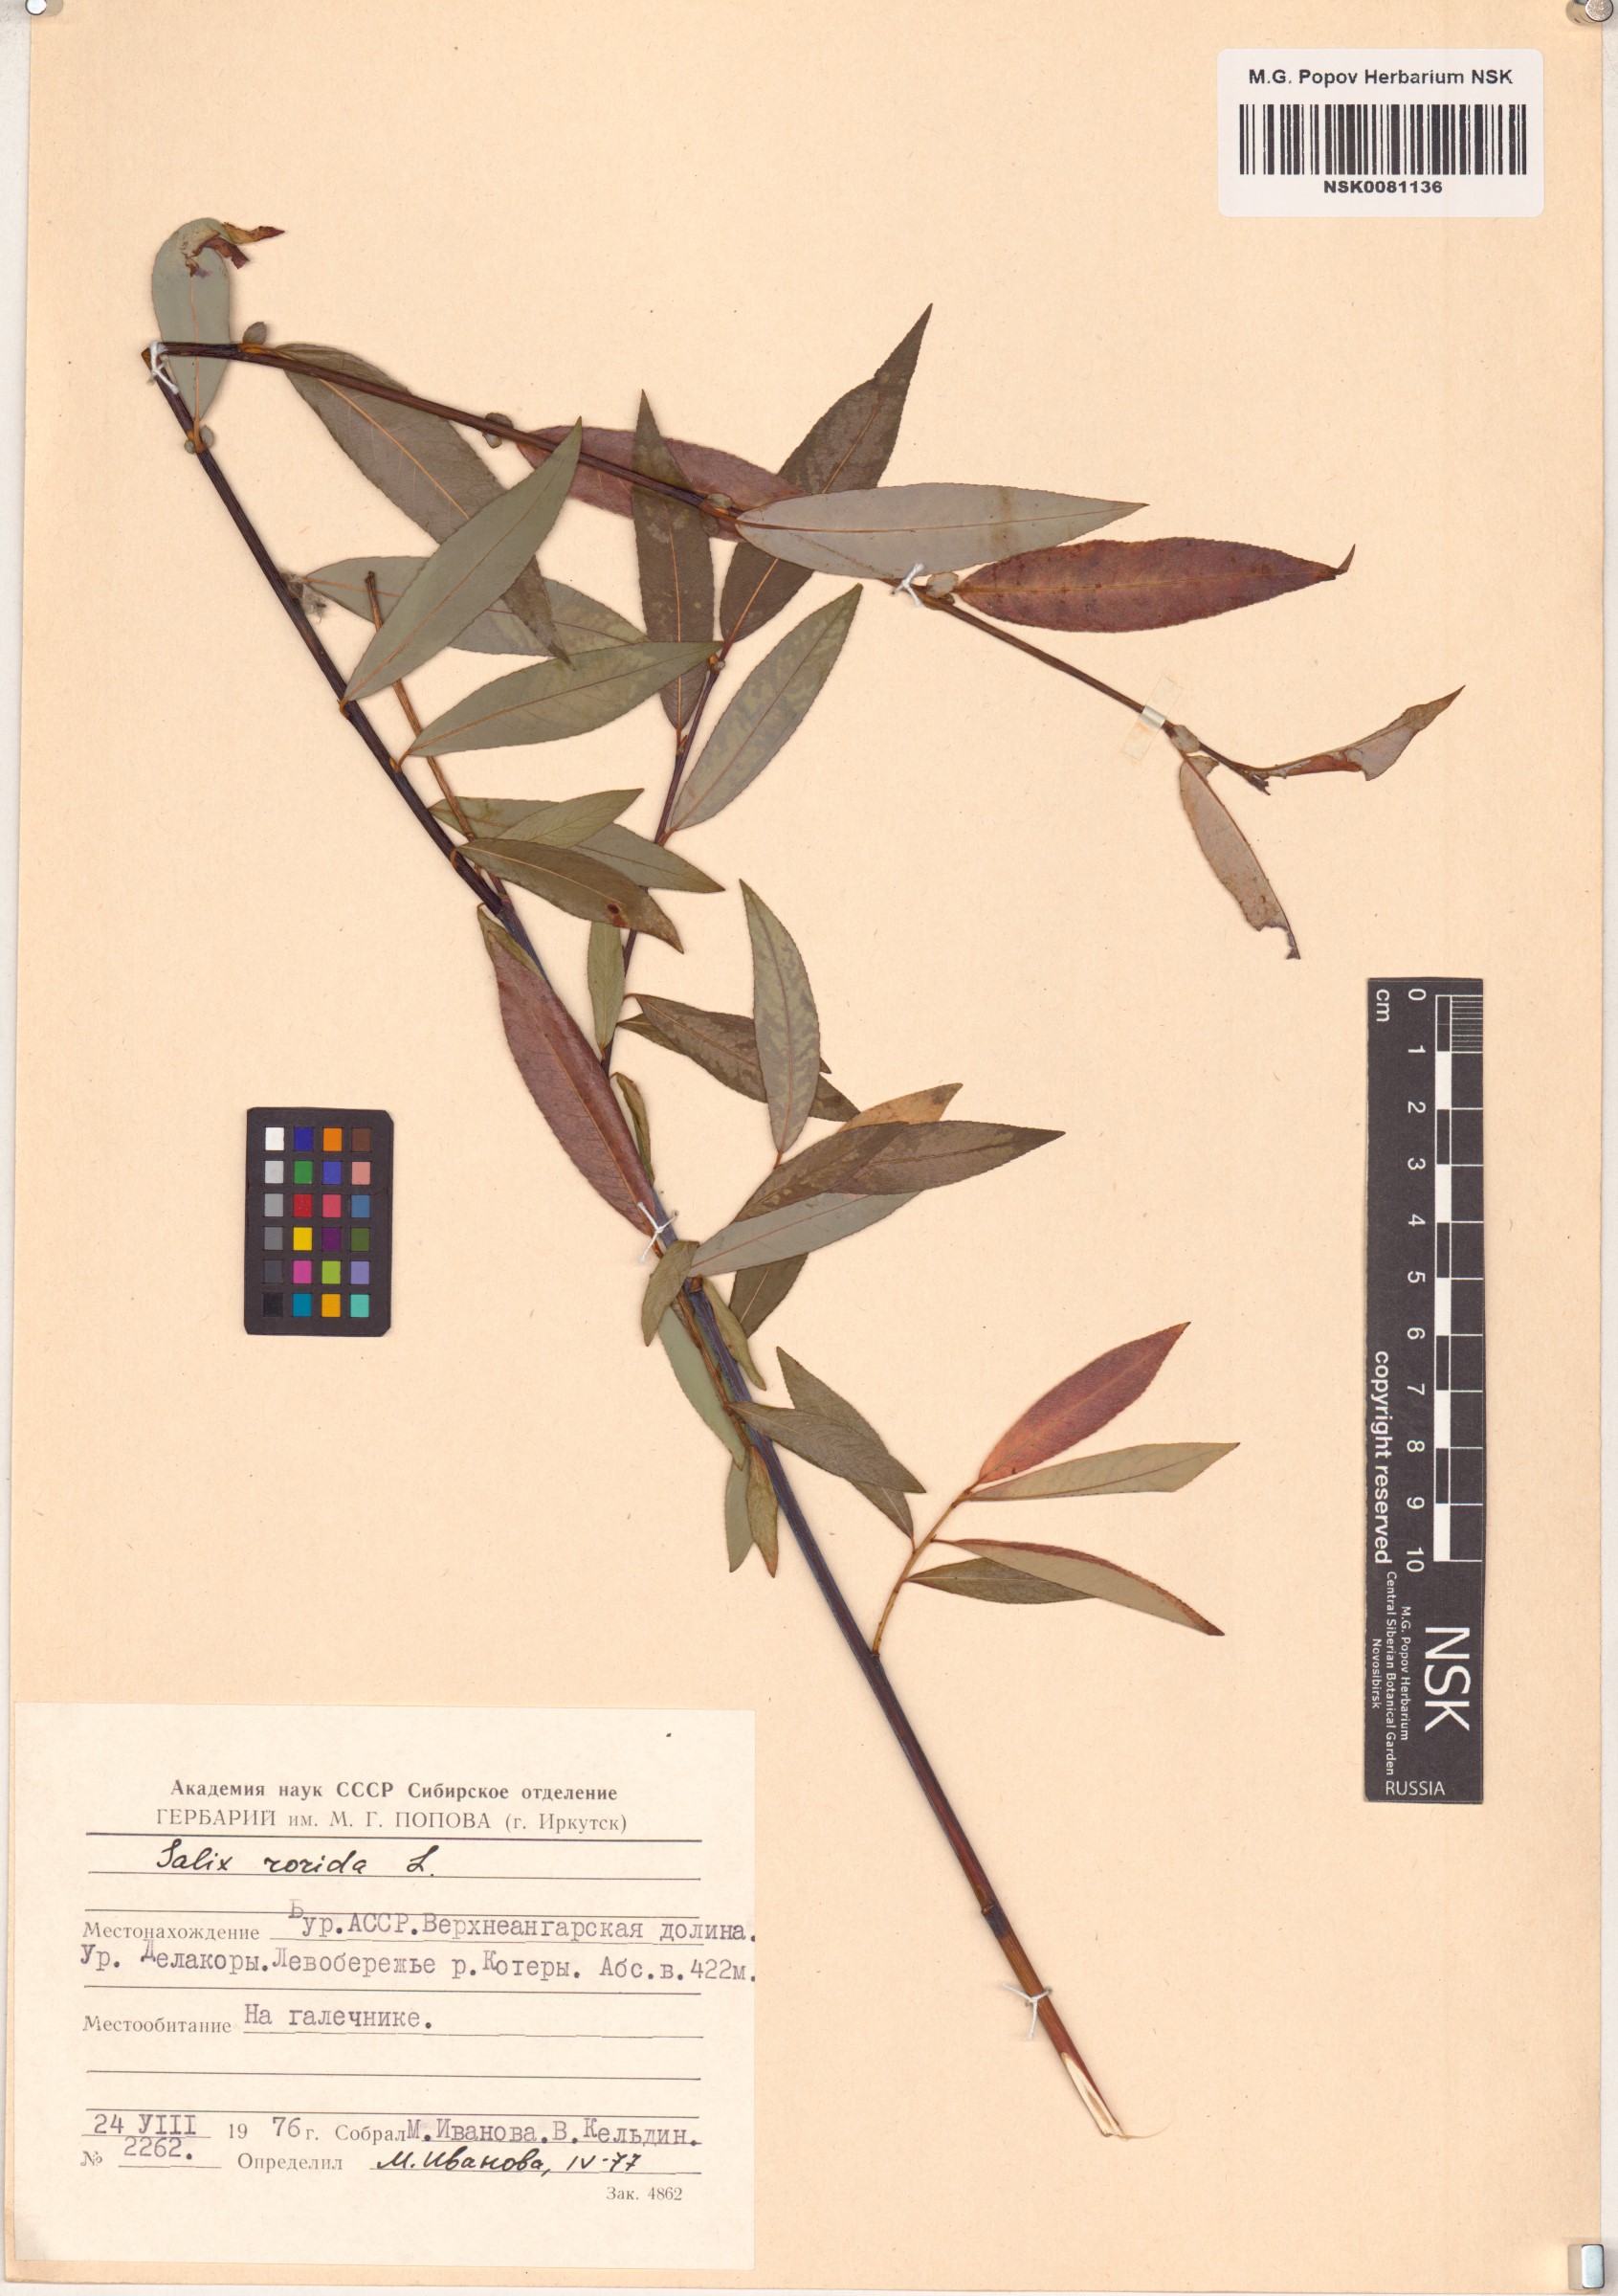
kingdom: Plantae
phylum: Tracheophyta
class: Magnoliopsida
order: Malpighiales
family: Salicaceae
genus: Salix
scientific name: Salix rorida
